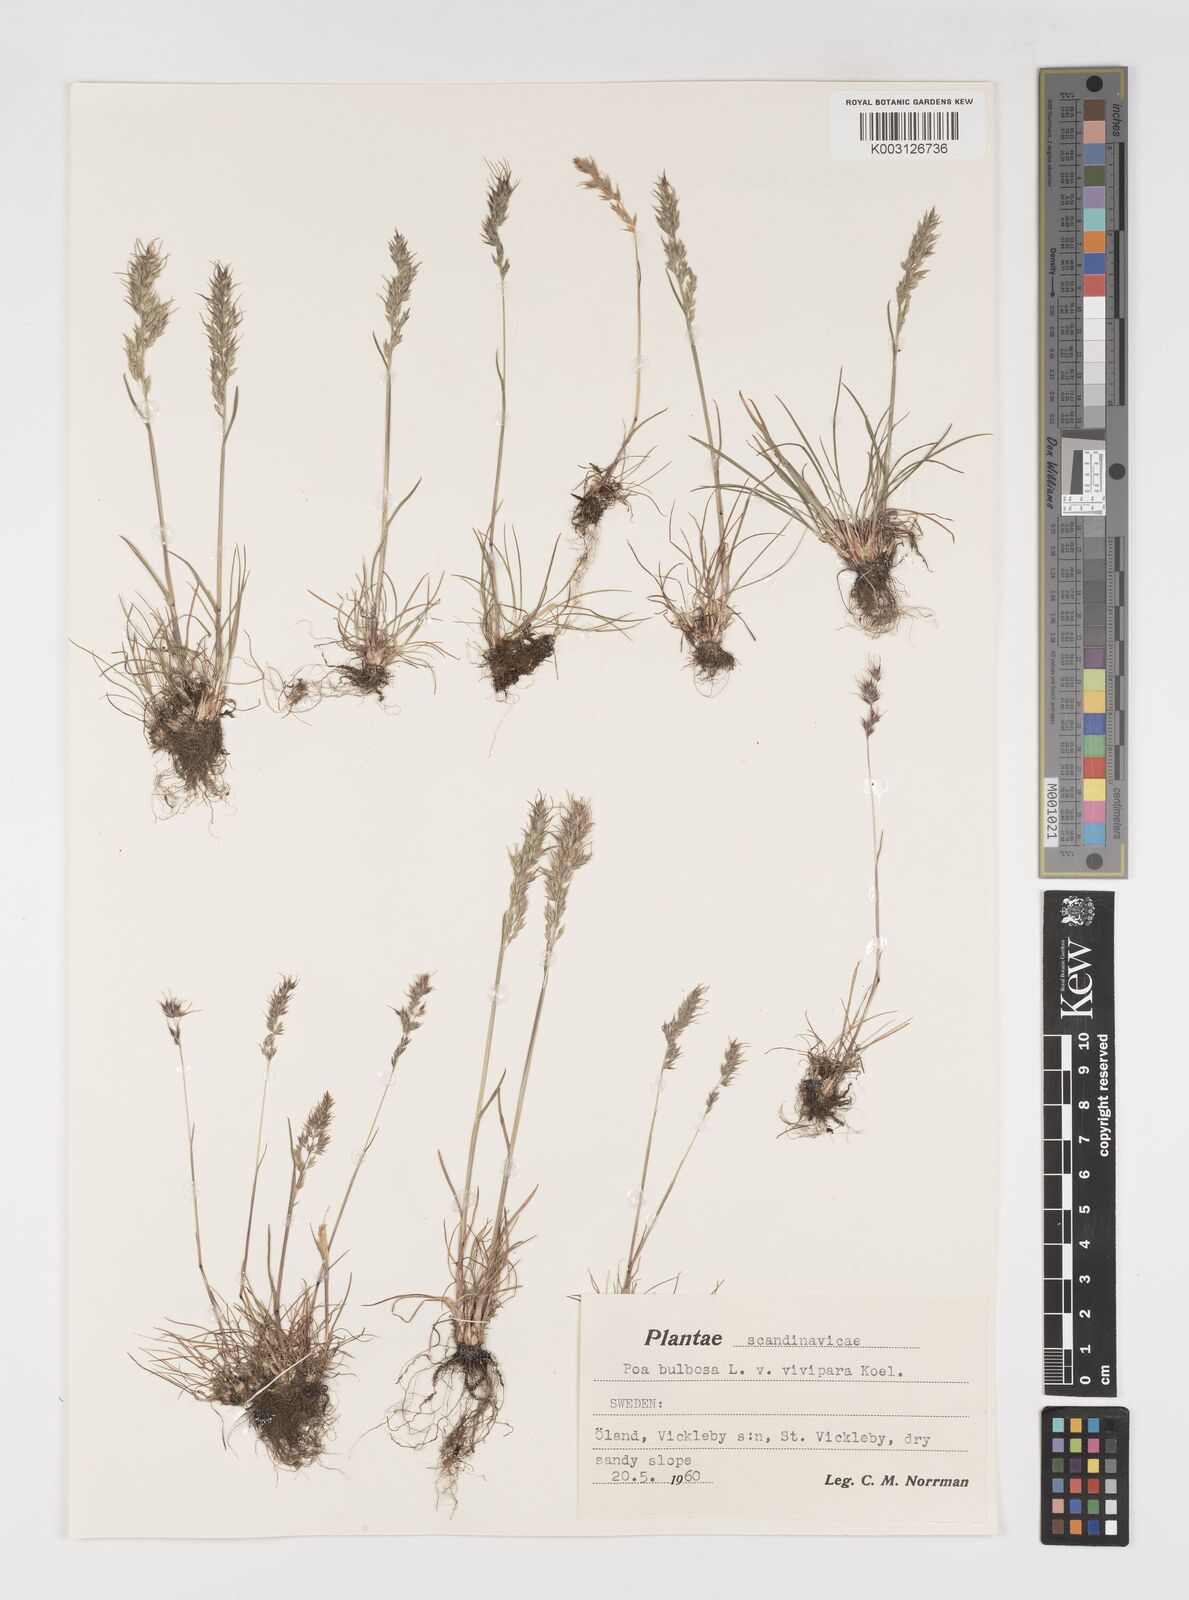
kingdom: Plantae
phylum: Tracheophyta
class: Liliopsida
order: Poales
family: Poaceae
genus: Poa
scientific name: Poa bulbosa
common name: Bulbous bluegrass
